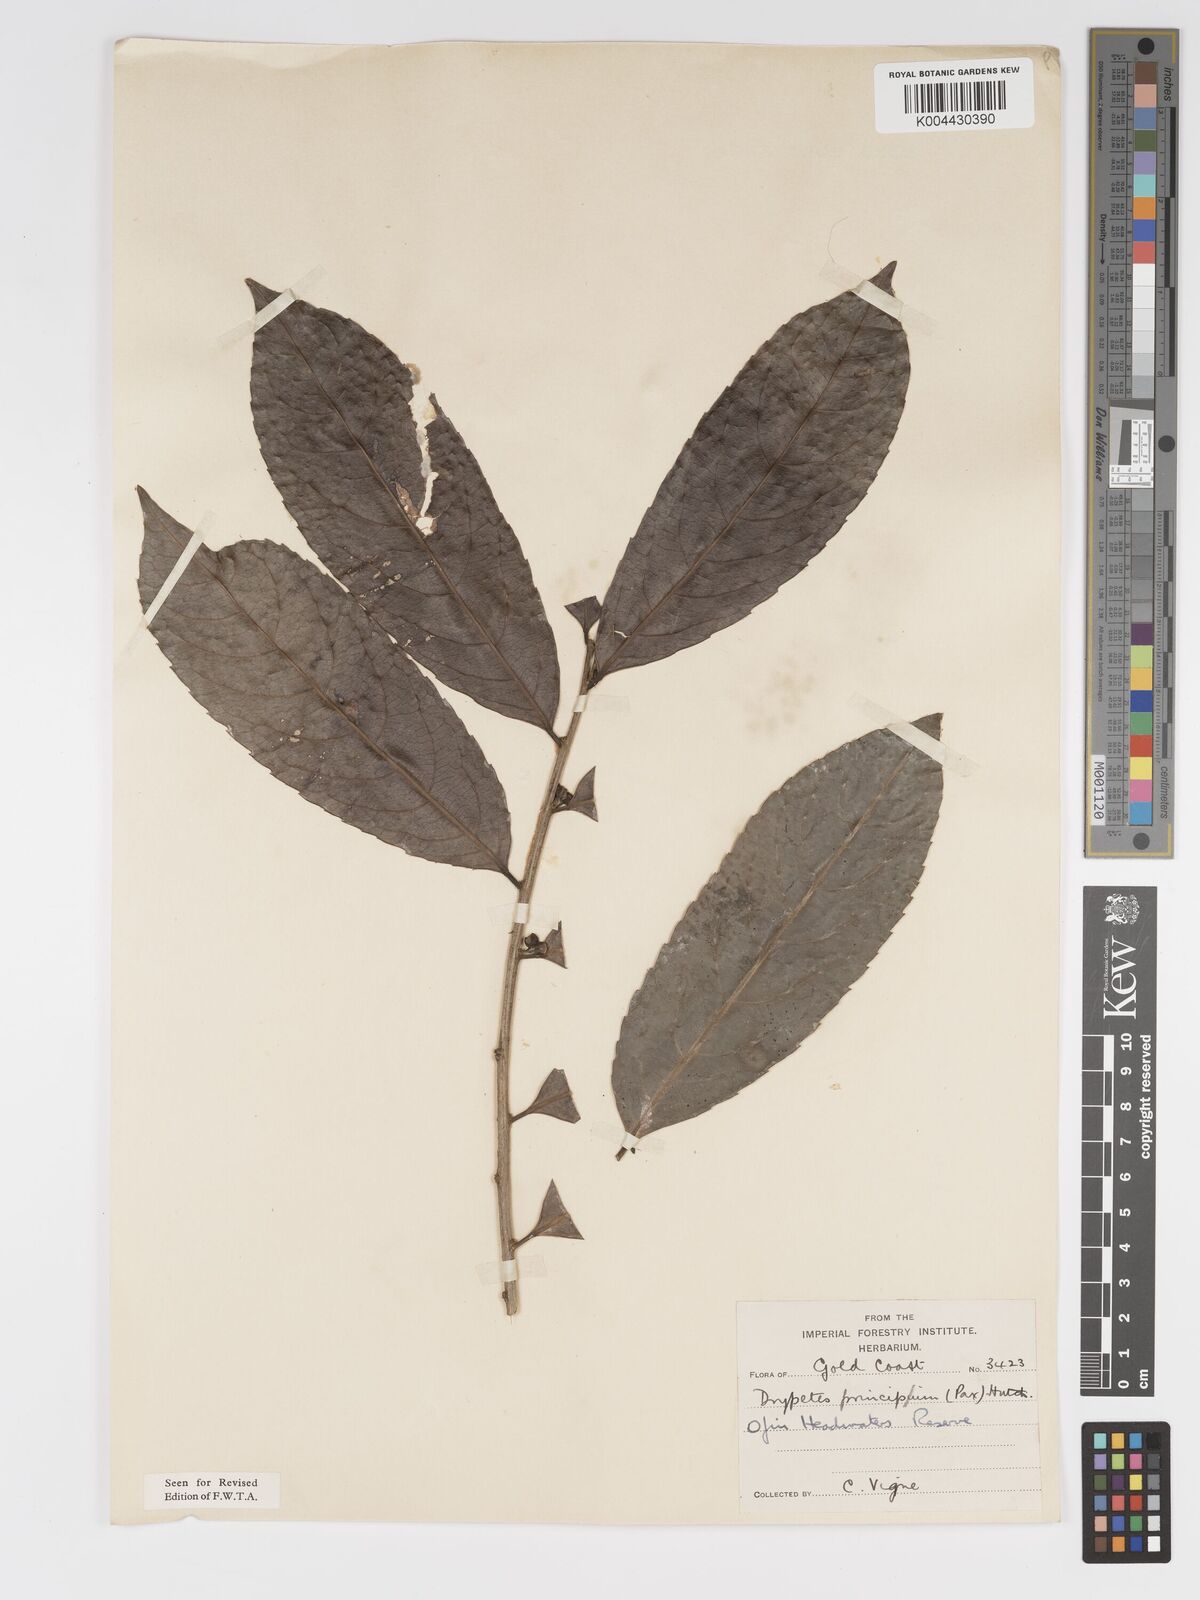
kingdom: Plantae
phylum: Tracheophyta
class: Magnoliopsida
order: Malpighiales
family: Putranjivaceae
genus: Drypetes
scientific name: Drypetes principum
